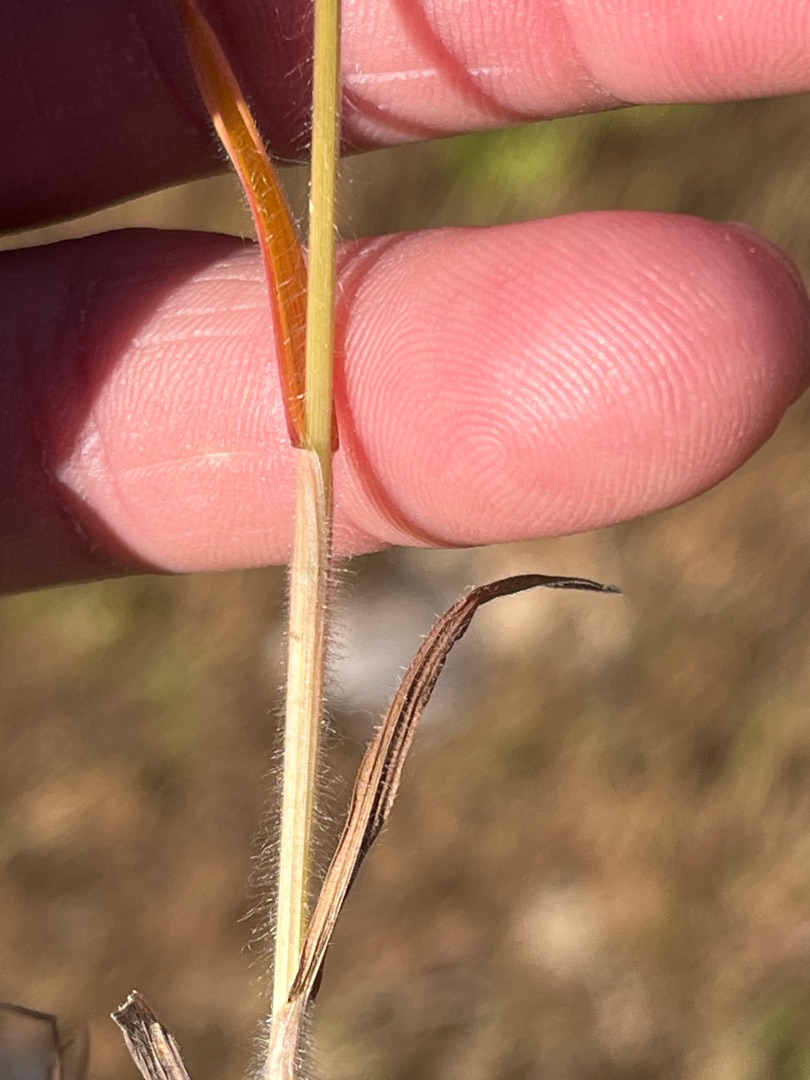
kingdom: Plantae
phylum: Tracheophyta
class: Liliopsida
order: Poales
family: Poaceae
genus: Bromus
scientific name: Bromus hordeaceus
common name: Blød hejre
